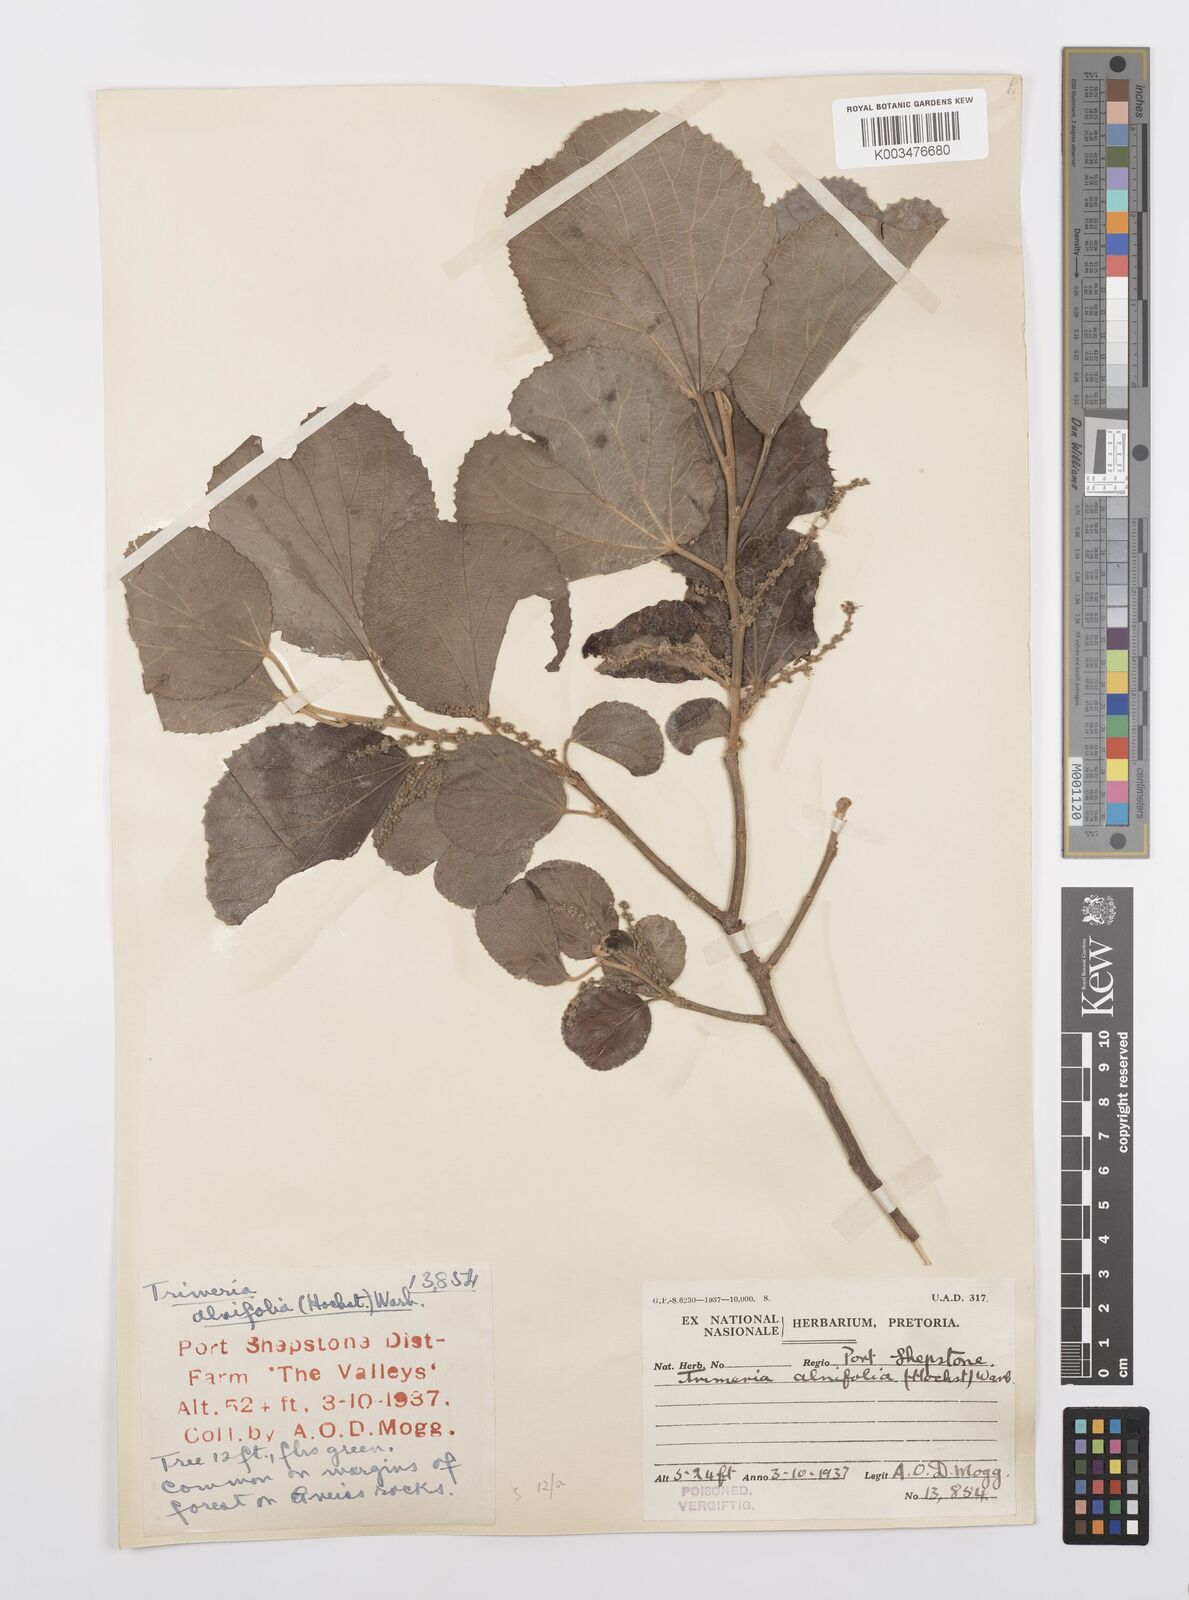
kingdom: Plantae
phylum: Tracheophyta
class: Magnoliopsida
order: Malpighiales
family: Salicaceae
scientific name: Salicaceae
